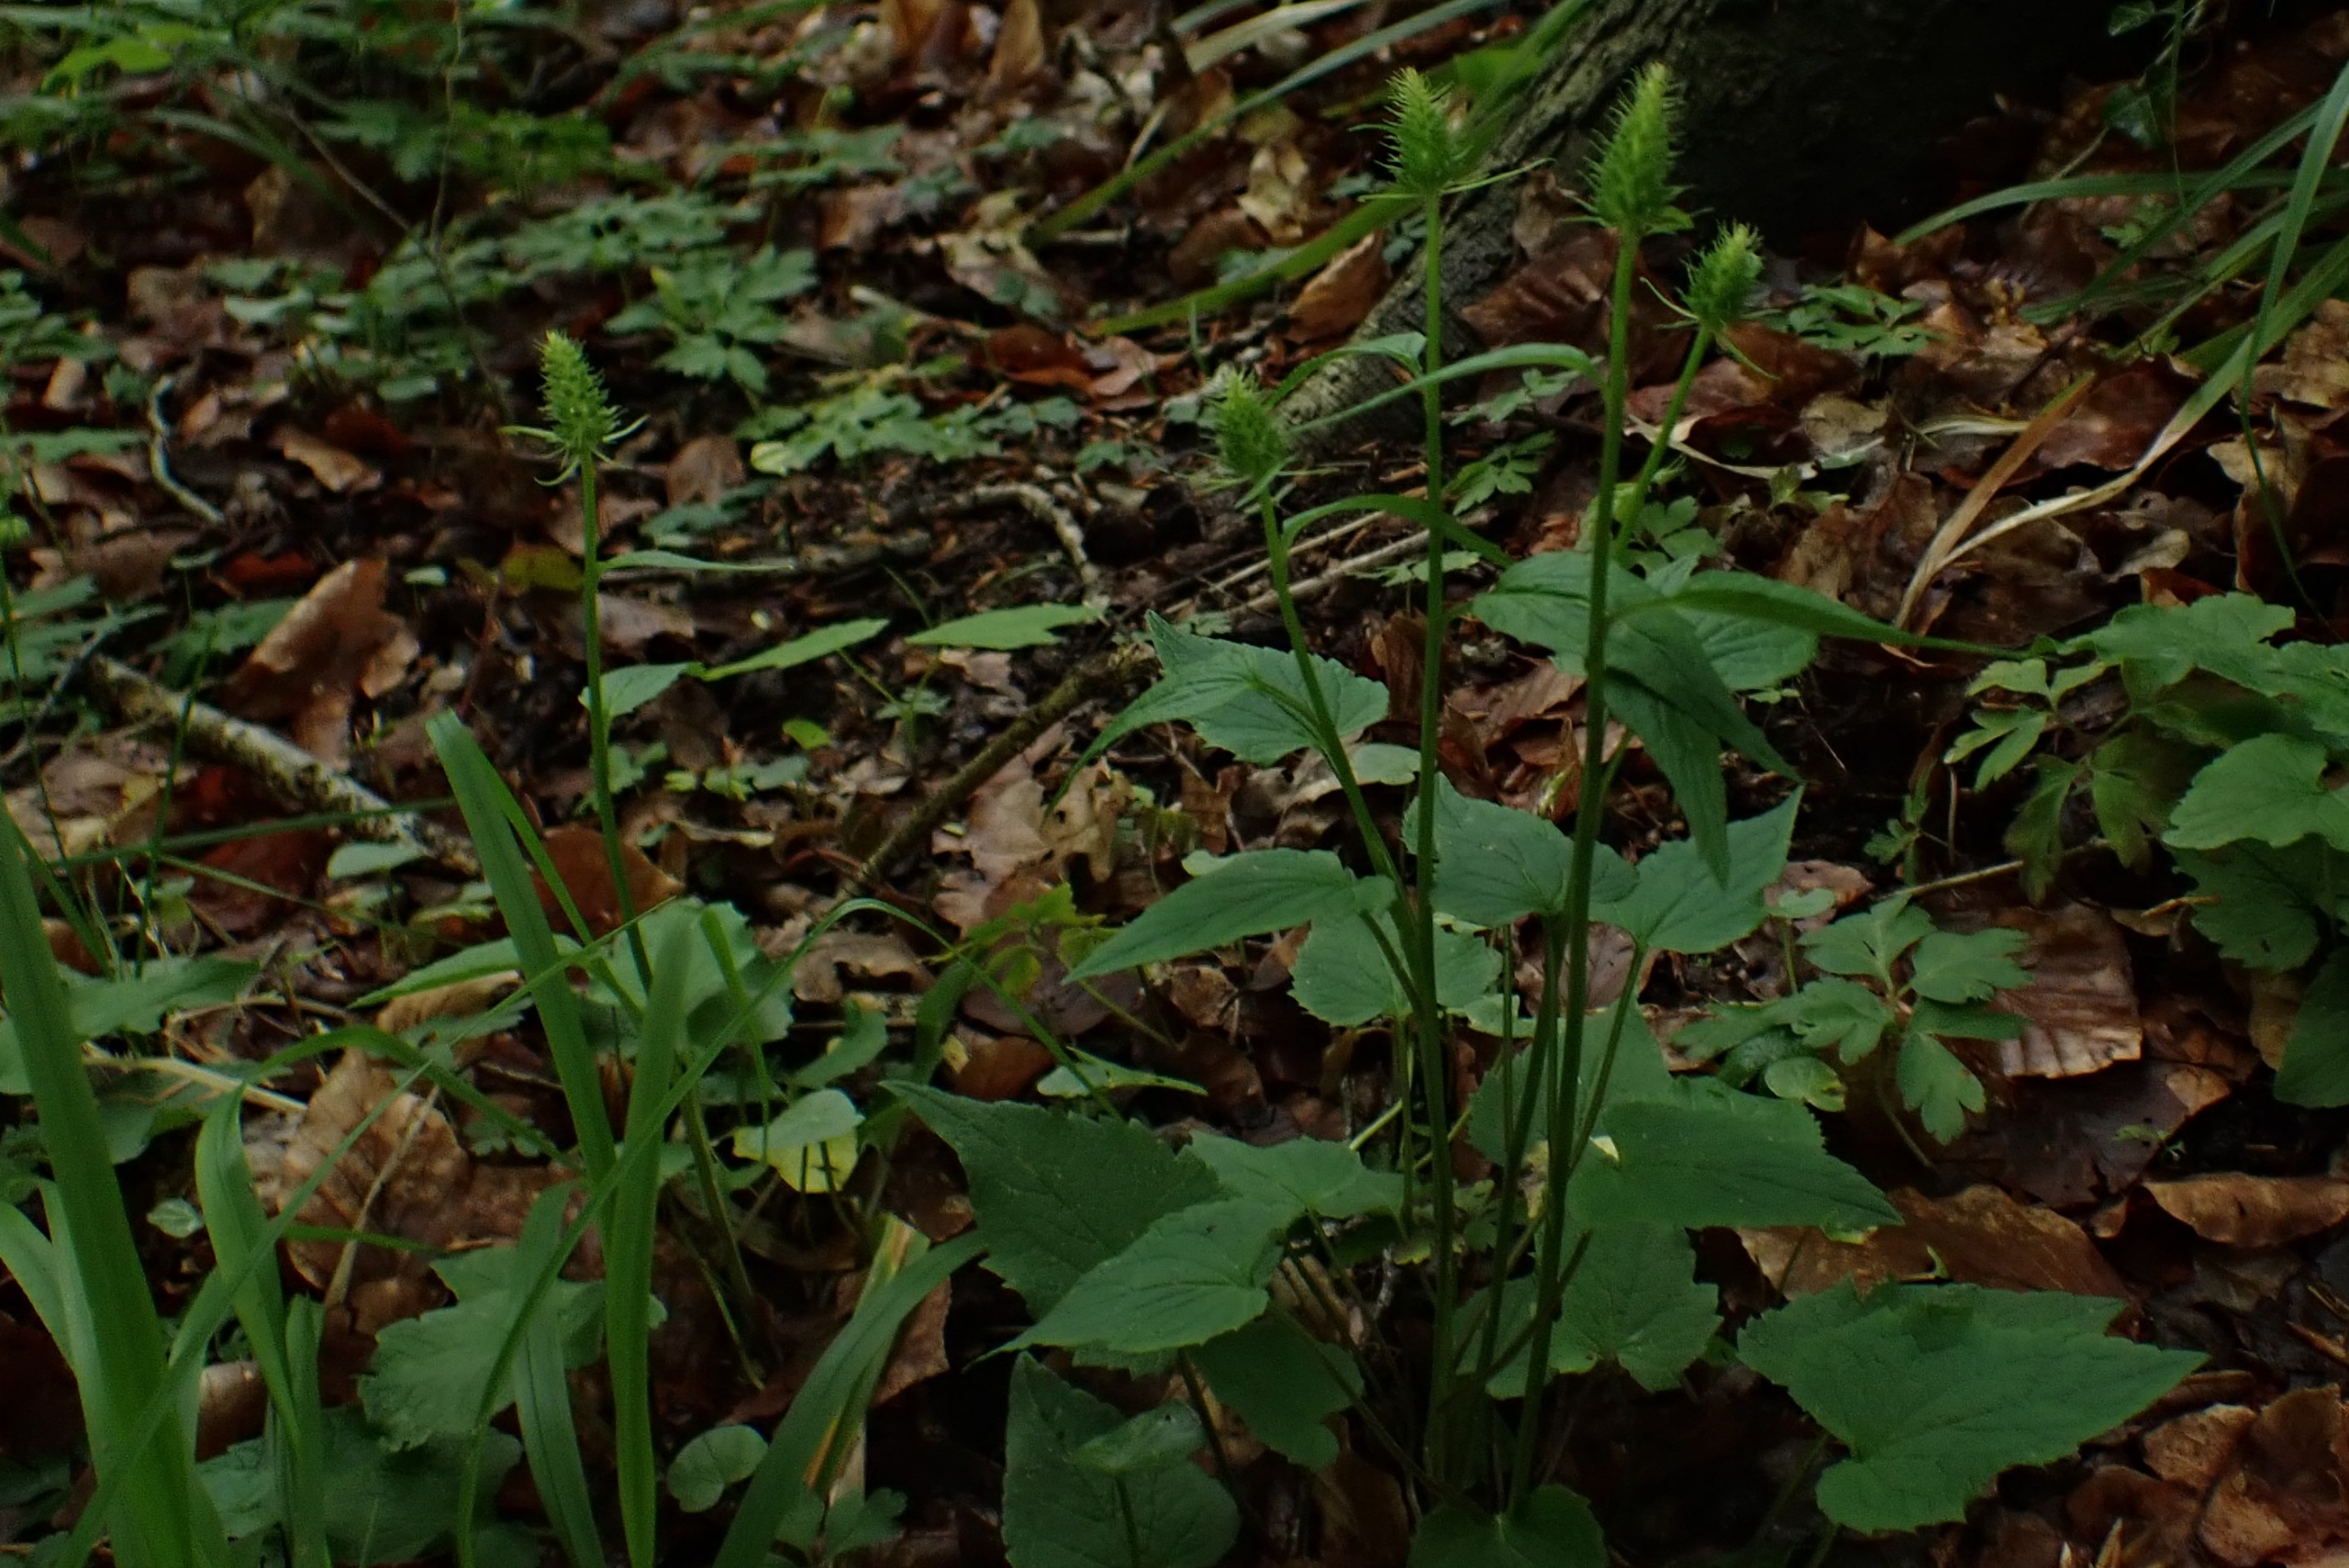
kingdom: Plantae
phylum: Tracheophyta
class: Magnoliopsida
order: Asterales
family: Campanulaceae
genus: Phyteuma
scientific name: Phyteuma spicatum
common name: Aks-rapunsel
